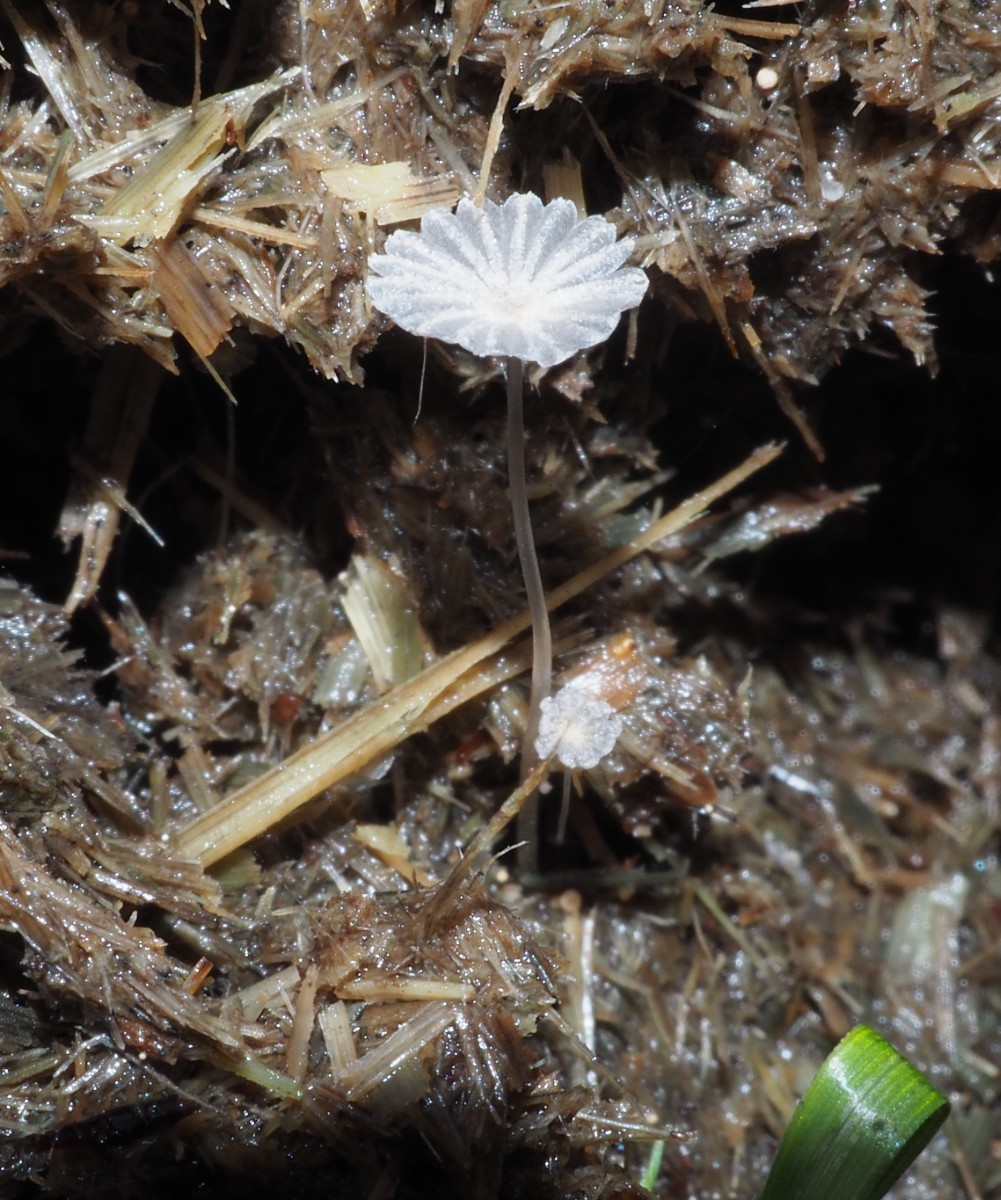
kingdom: Fungi
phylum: Basidiomycota
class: Agaricomycetes
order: Agaricales
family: Psathyrellaceae
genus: Narcissea
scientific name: Narcissea ephemeroides
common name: ring-blækhat
